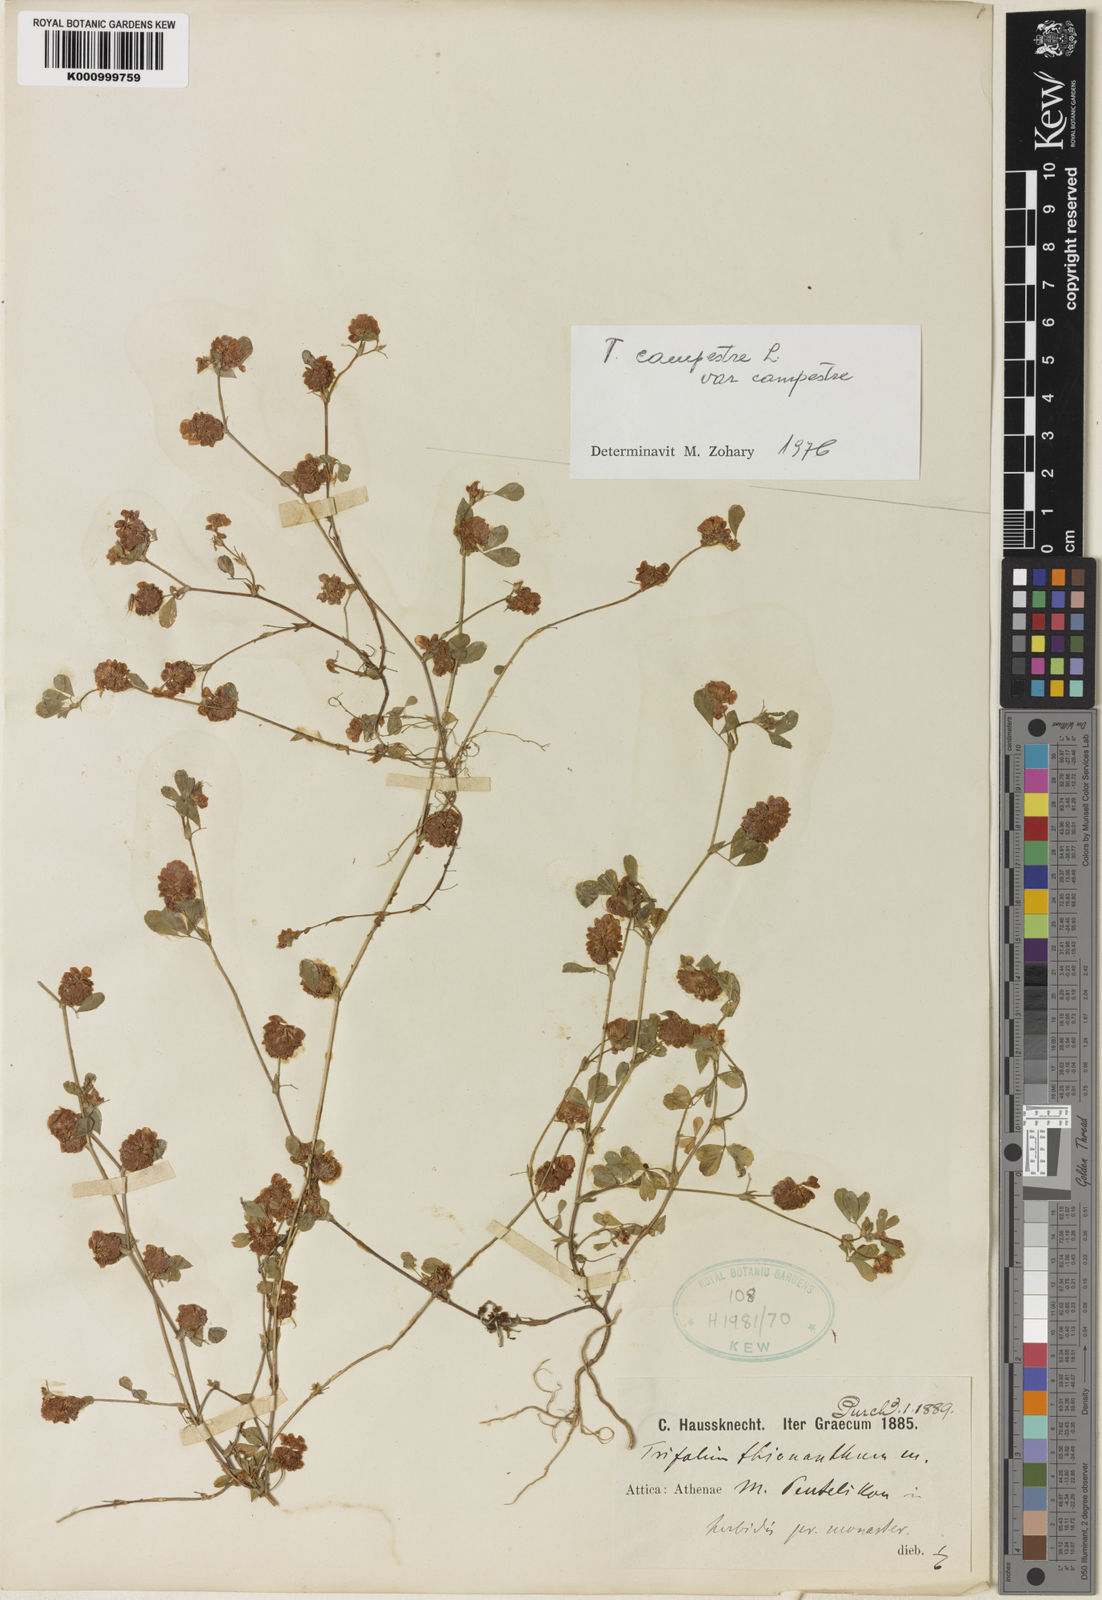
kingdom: Plantae
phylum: Tracheophyta
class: Magnoliopsida
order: Fabales
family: Fabaceae
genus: Trifolium
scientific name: Trifolium campestre
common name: Field clover
